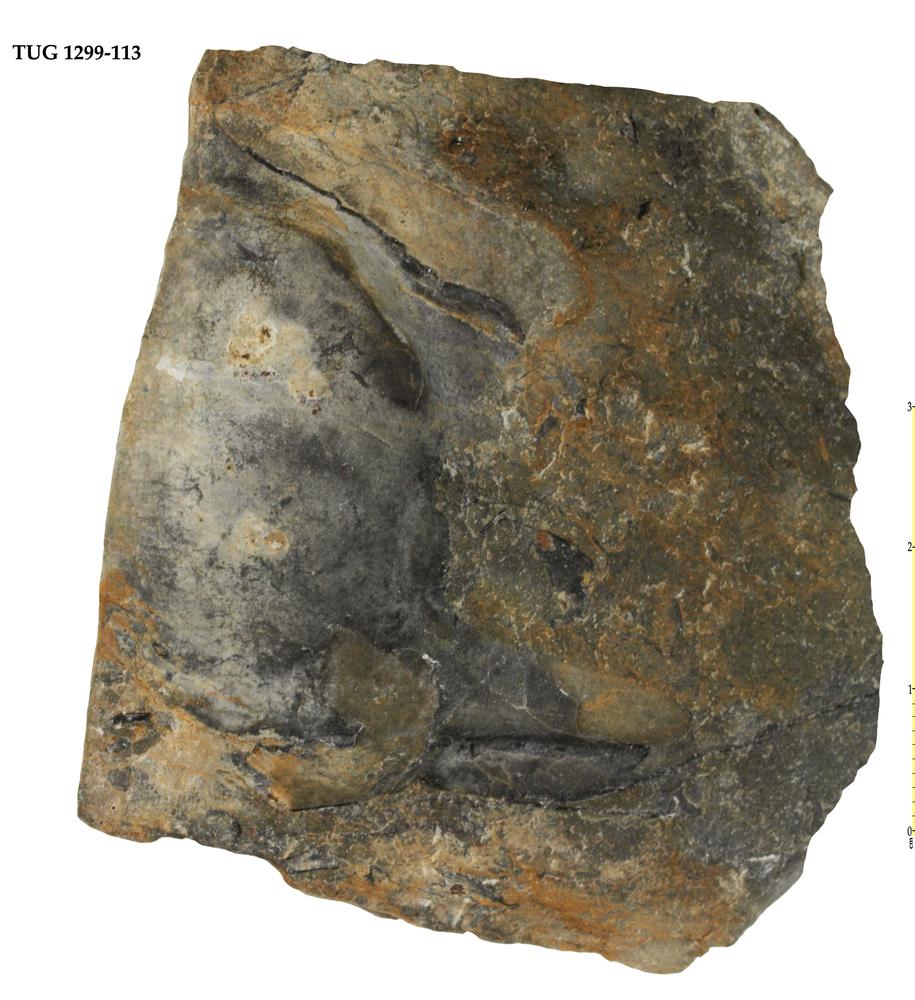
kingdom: Animalia
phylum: Arthropoda
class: Trilobita
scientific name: Trilobita
